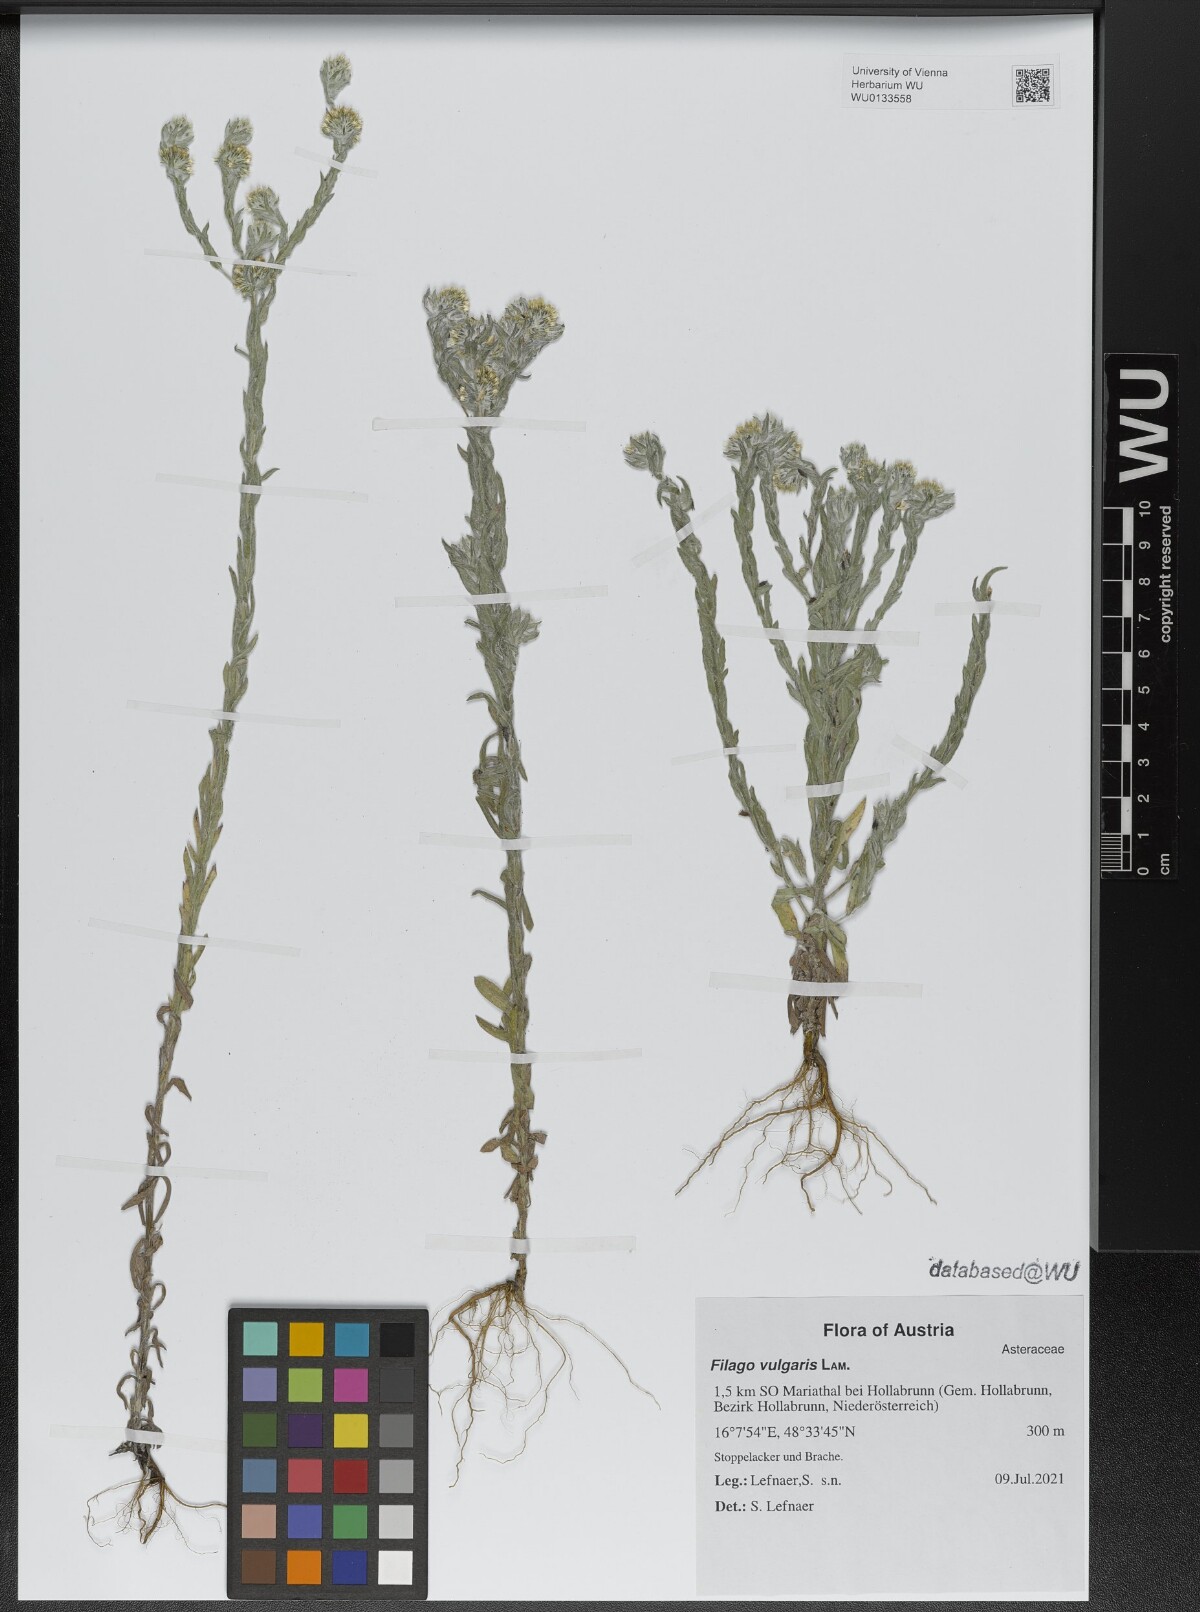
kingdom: Plantae
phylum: Tracheophyta
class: Magnoliopsida
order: Asterales
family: Asteraceae
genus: Filago
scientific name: Filago germanica
